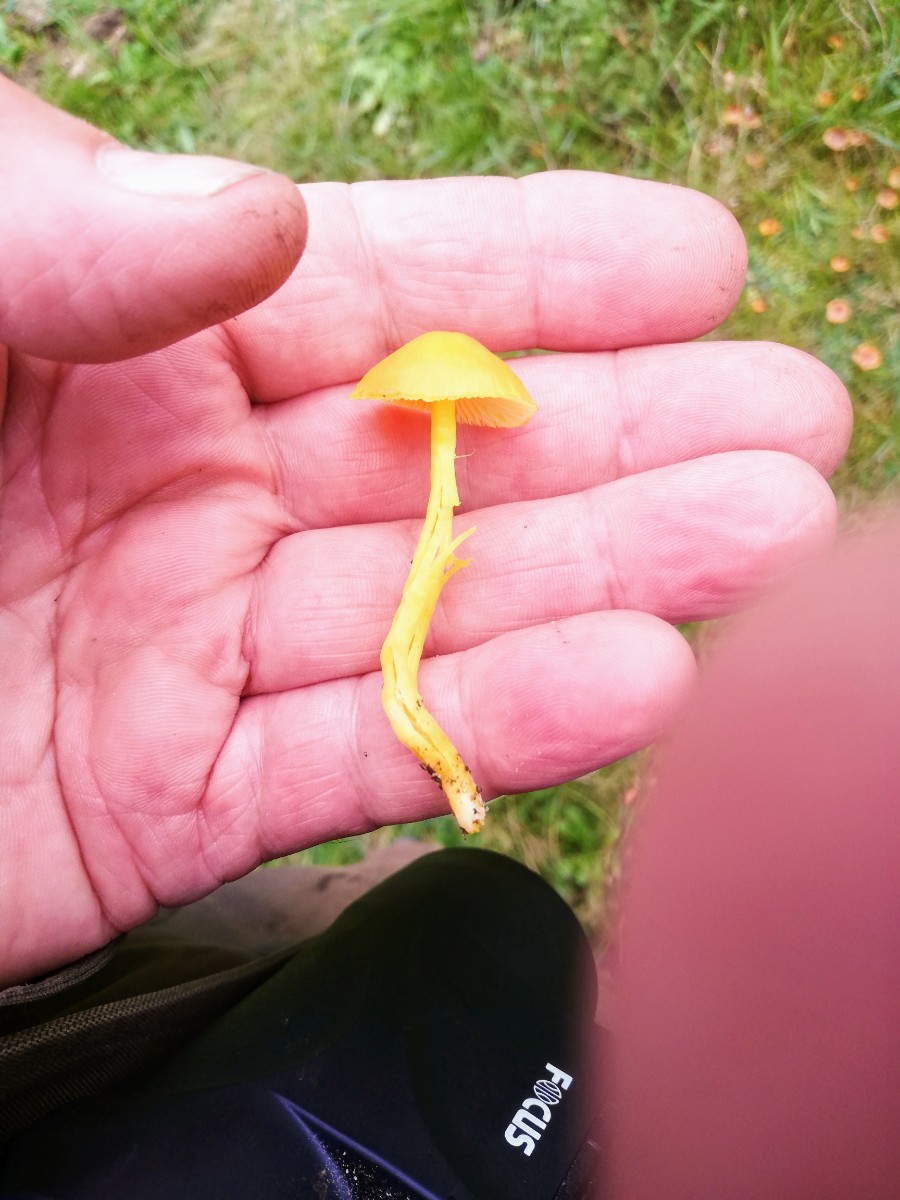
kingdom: Fungi
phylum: Basidiomycota
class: Agaricomycetes
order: Agaricales
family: Hygrophoraceae
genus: Hygrocybe
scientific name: Hygrocybe ceracea
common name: voksgul vokshat
